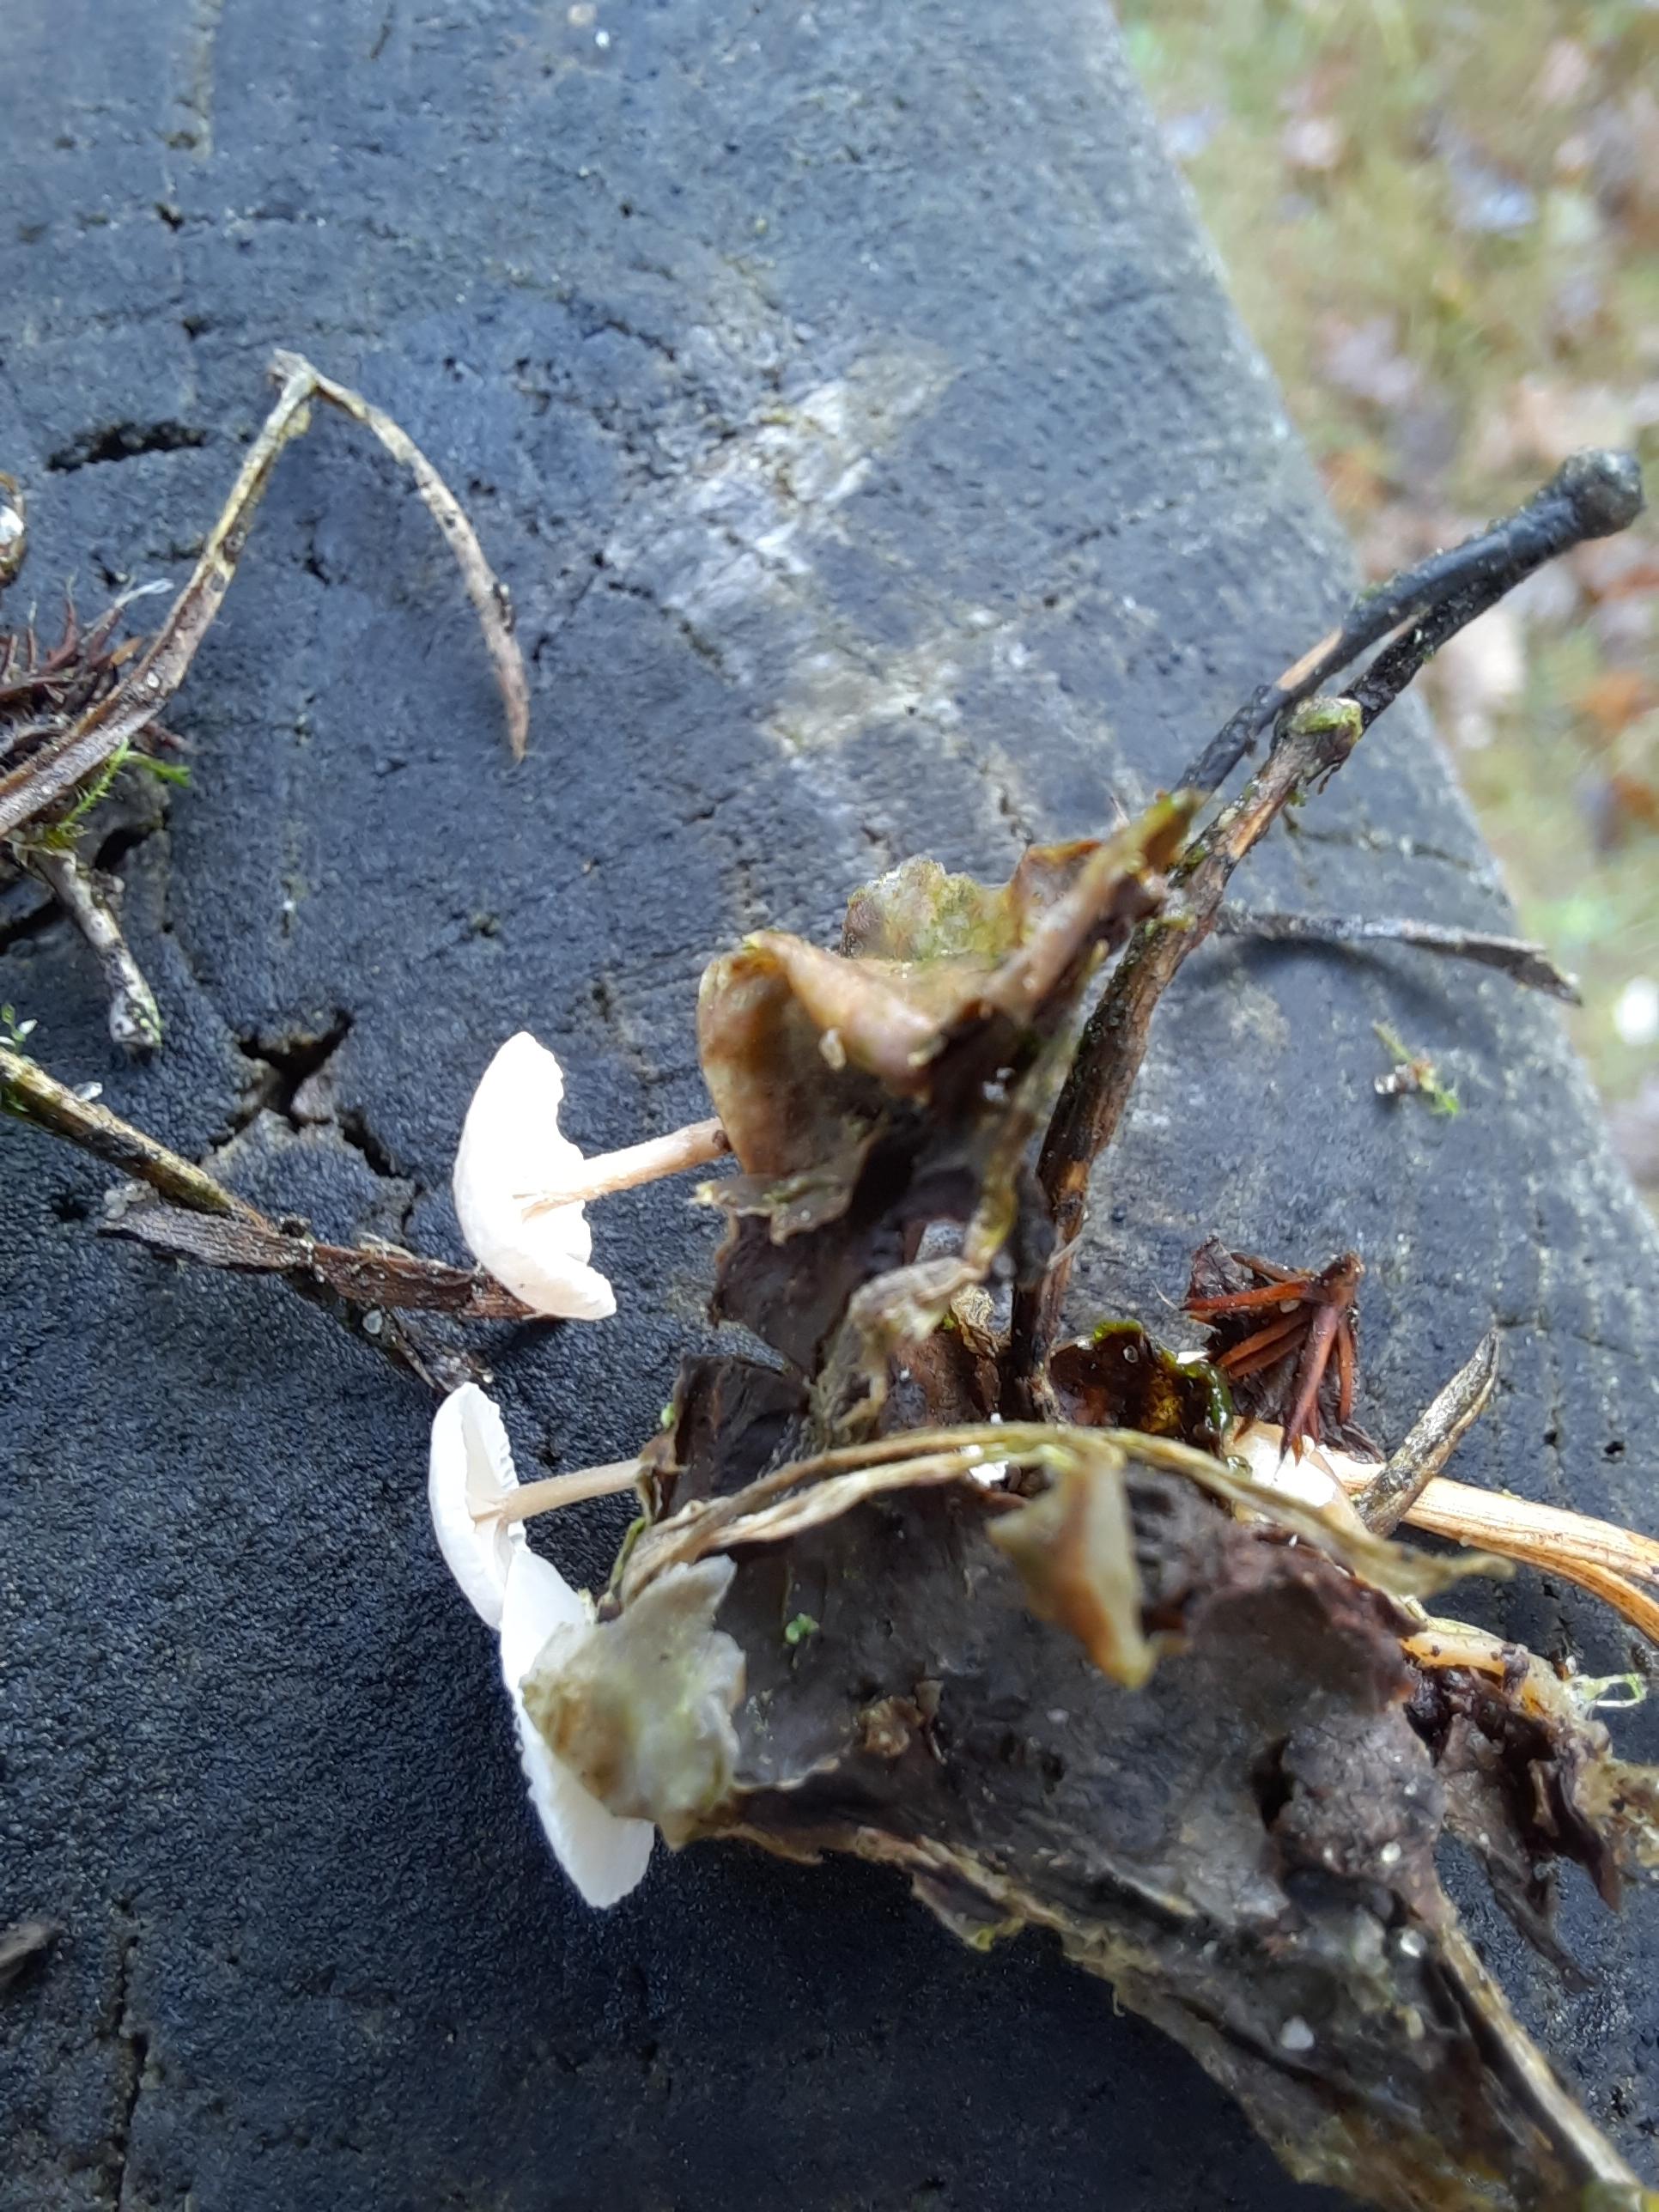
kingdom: Fungi
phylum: Basidiomycota
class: Agaricomycetes
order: Agaricales
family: Tricholomataceae
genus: Collybia
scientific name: Collybia cirrhata
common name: silke-lighat
